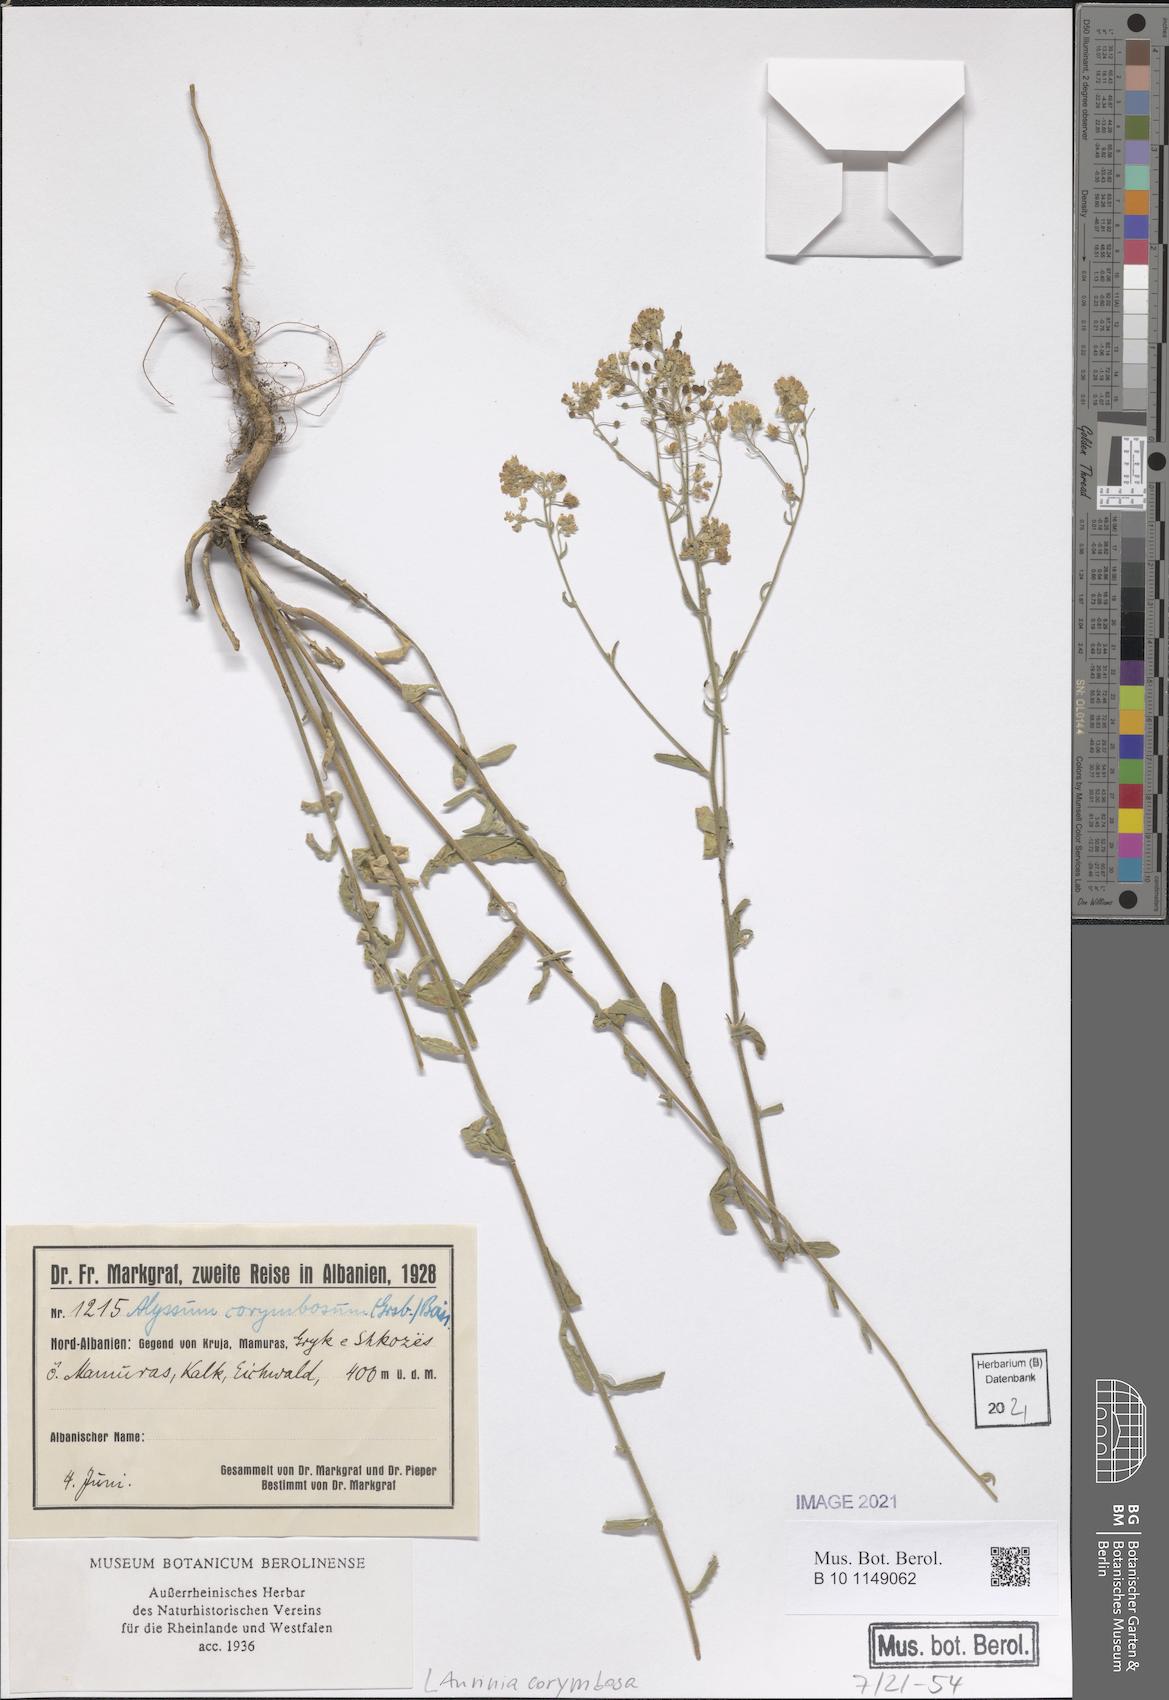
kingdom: Plantae
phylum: Tracheophyta
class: Magnoliopsida
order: Brassicales
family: Brassicaceae
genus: Aurinia
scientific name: Aurinia corymbosa
